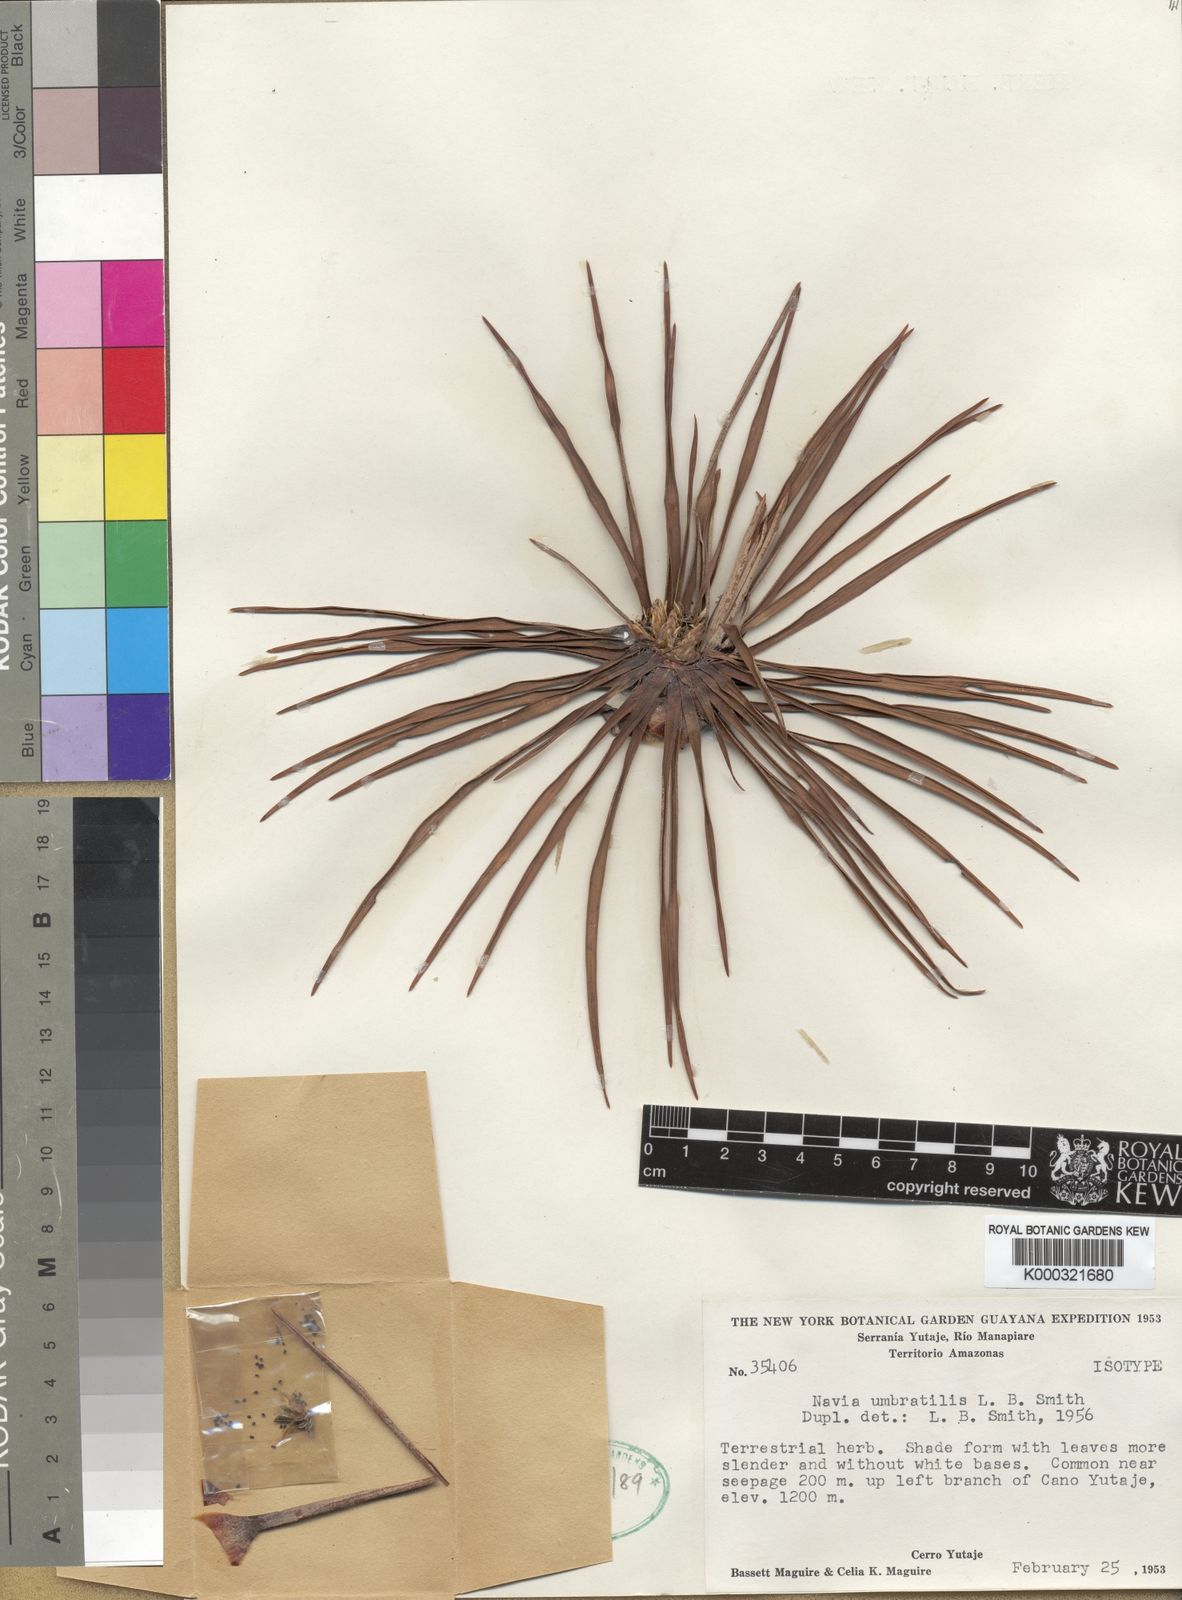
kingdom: Plantae
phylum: Tracheophyta
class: Liliopsida
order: Poales
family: Bromeliaceae
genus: Navia
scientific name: Navia umbratilis
